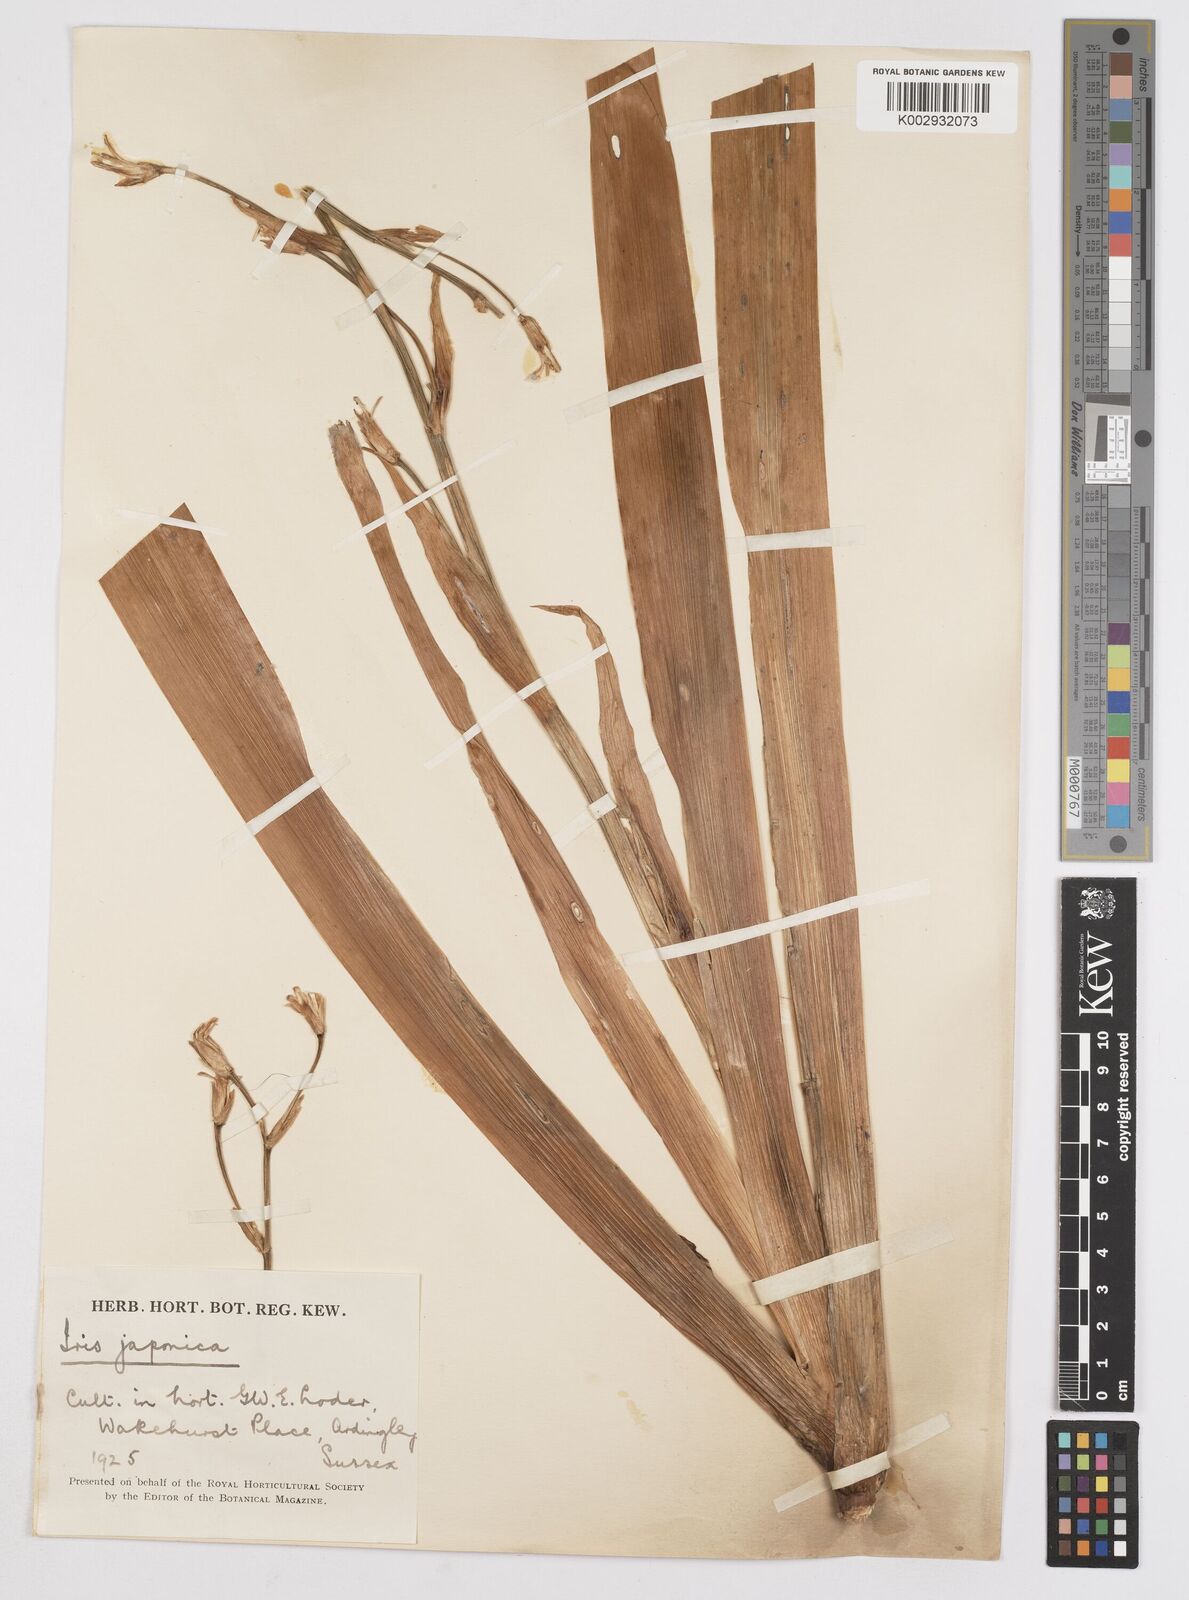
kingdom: Plantae
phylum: Tracheophyta
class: Liliopsida
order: Asparagales
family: Iridaceae
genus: Iris
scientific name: Iris japonica
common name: Butterfly-flower
